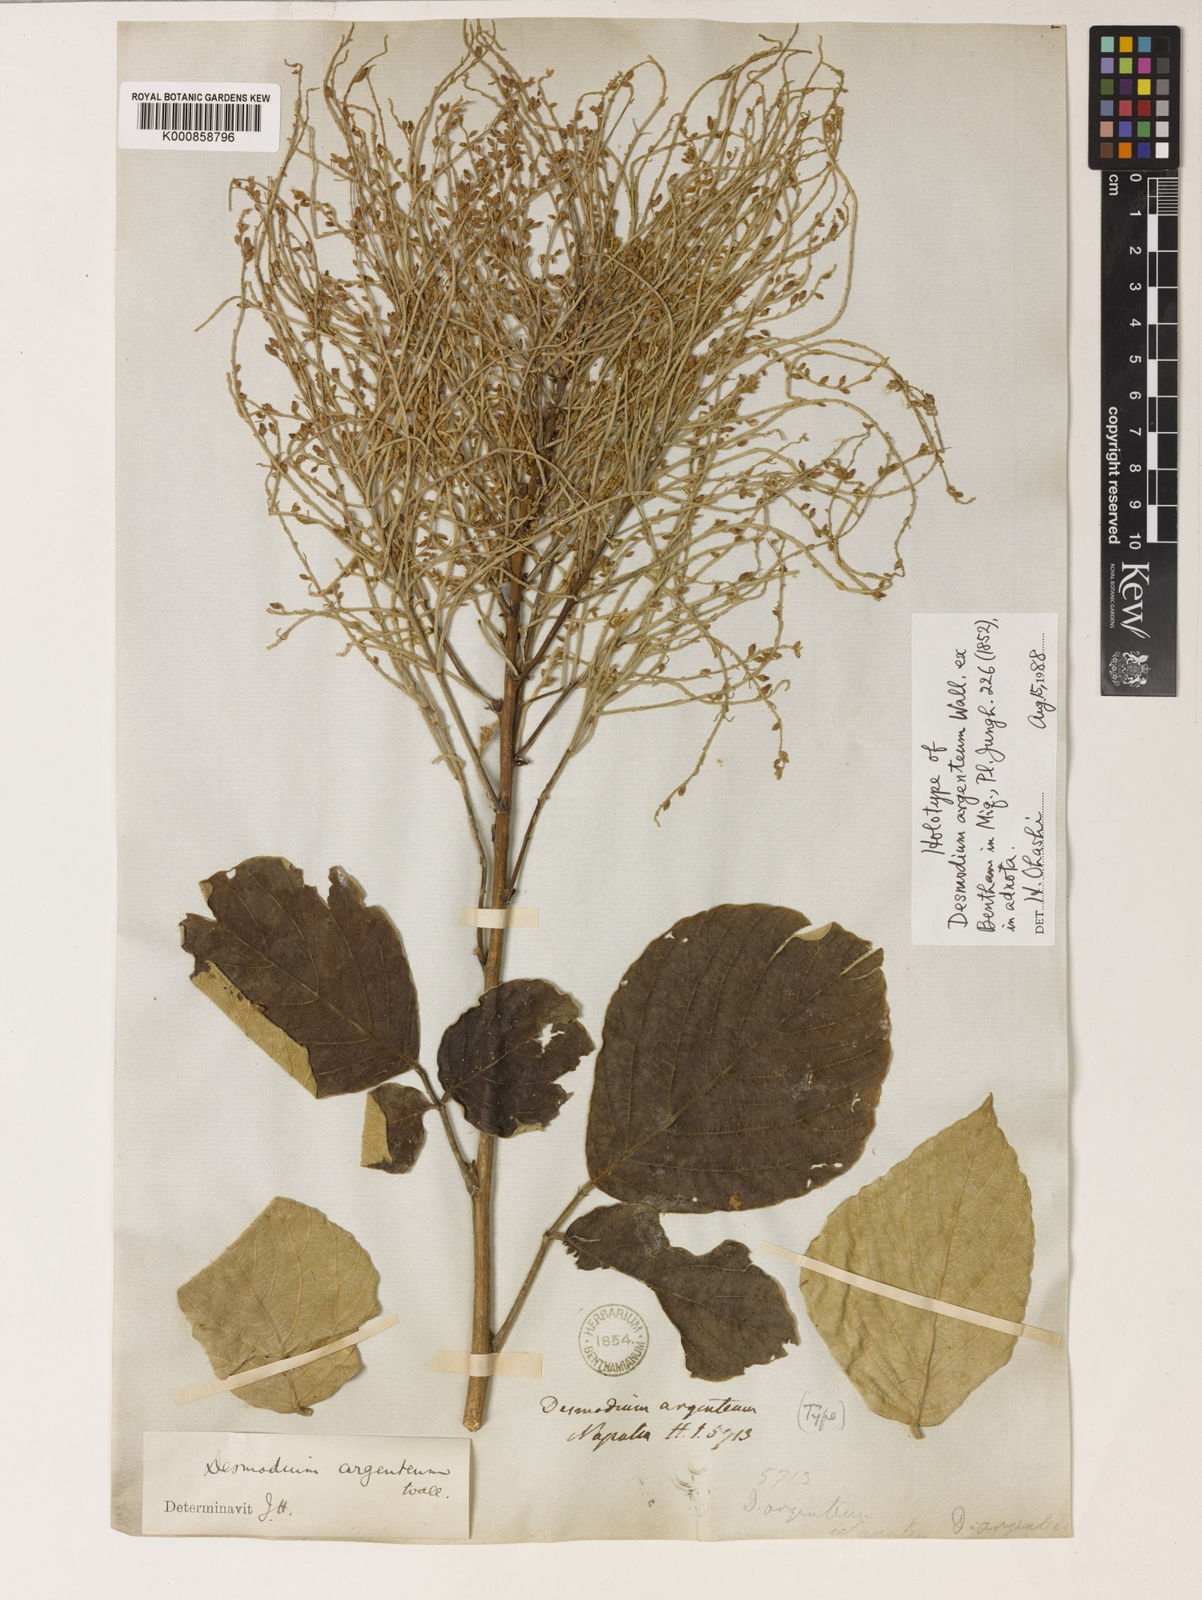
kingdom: Plantae
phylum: Tracheophyta
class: Magnoliopsida
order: Fabales
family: Fabaceae
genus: Sunhangia
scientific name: Sunhangia elegans
